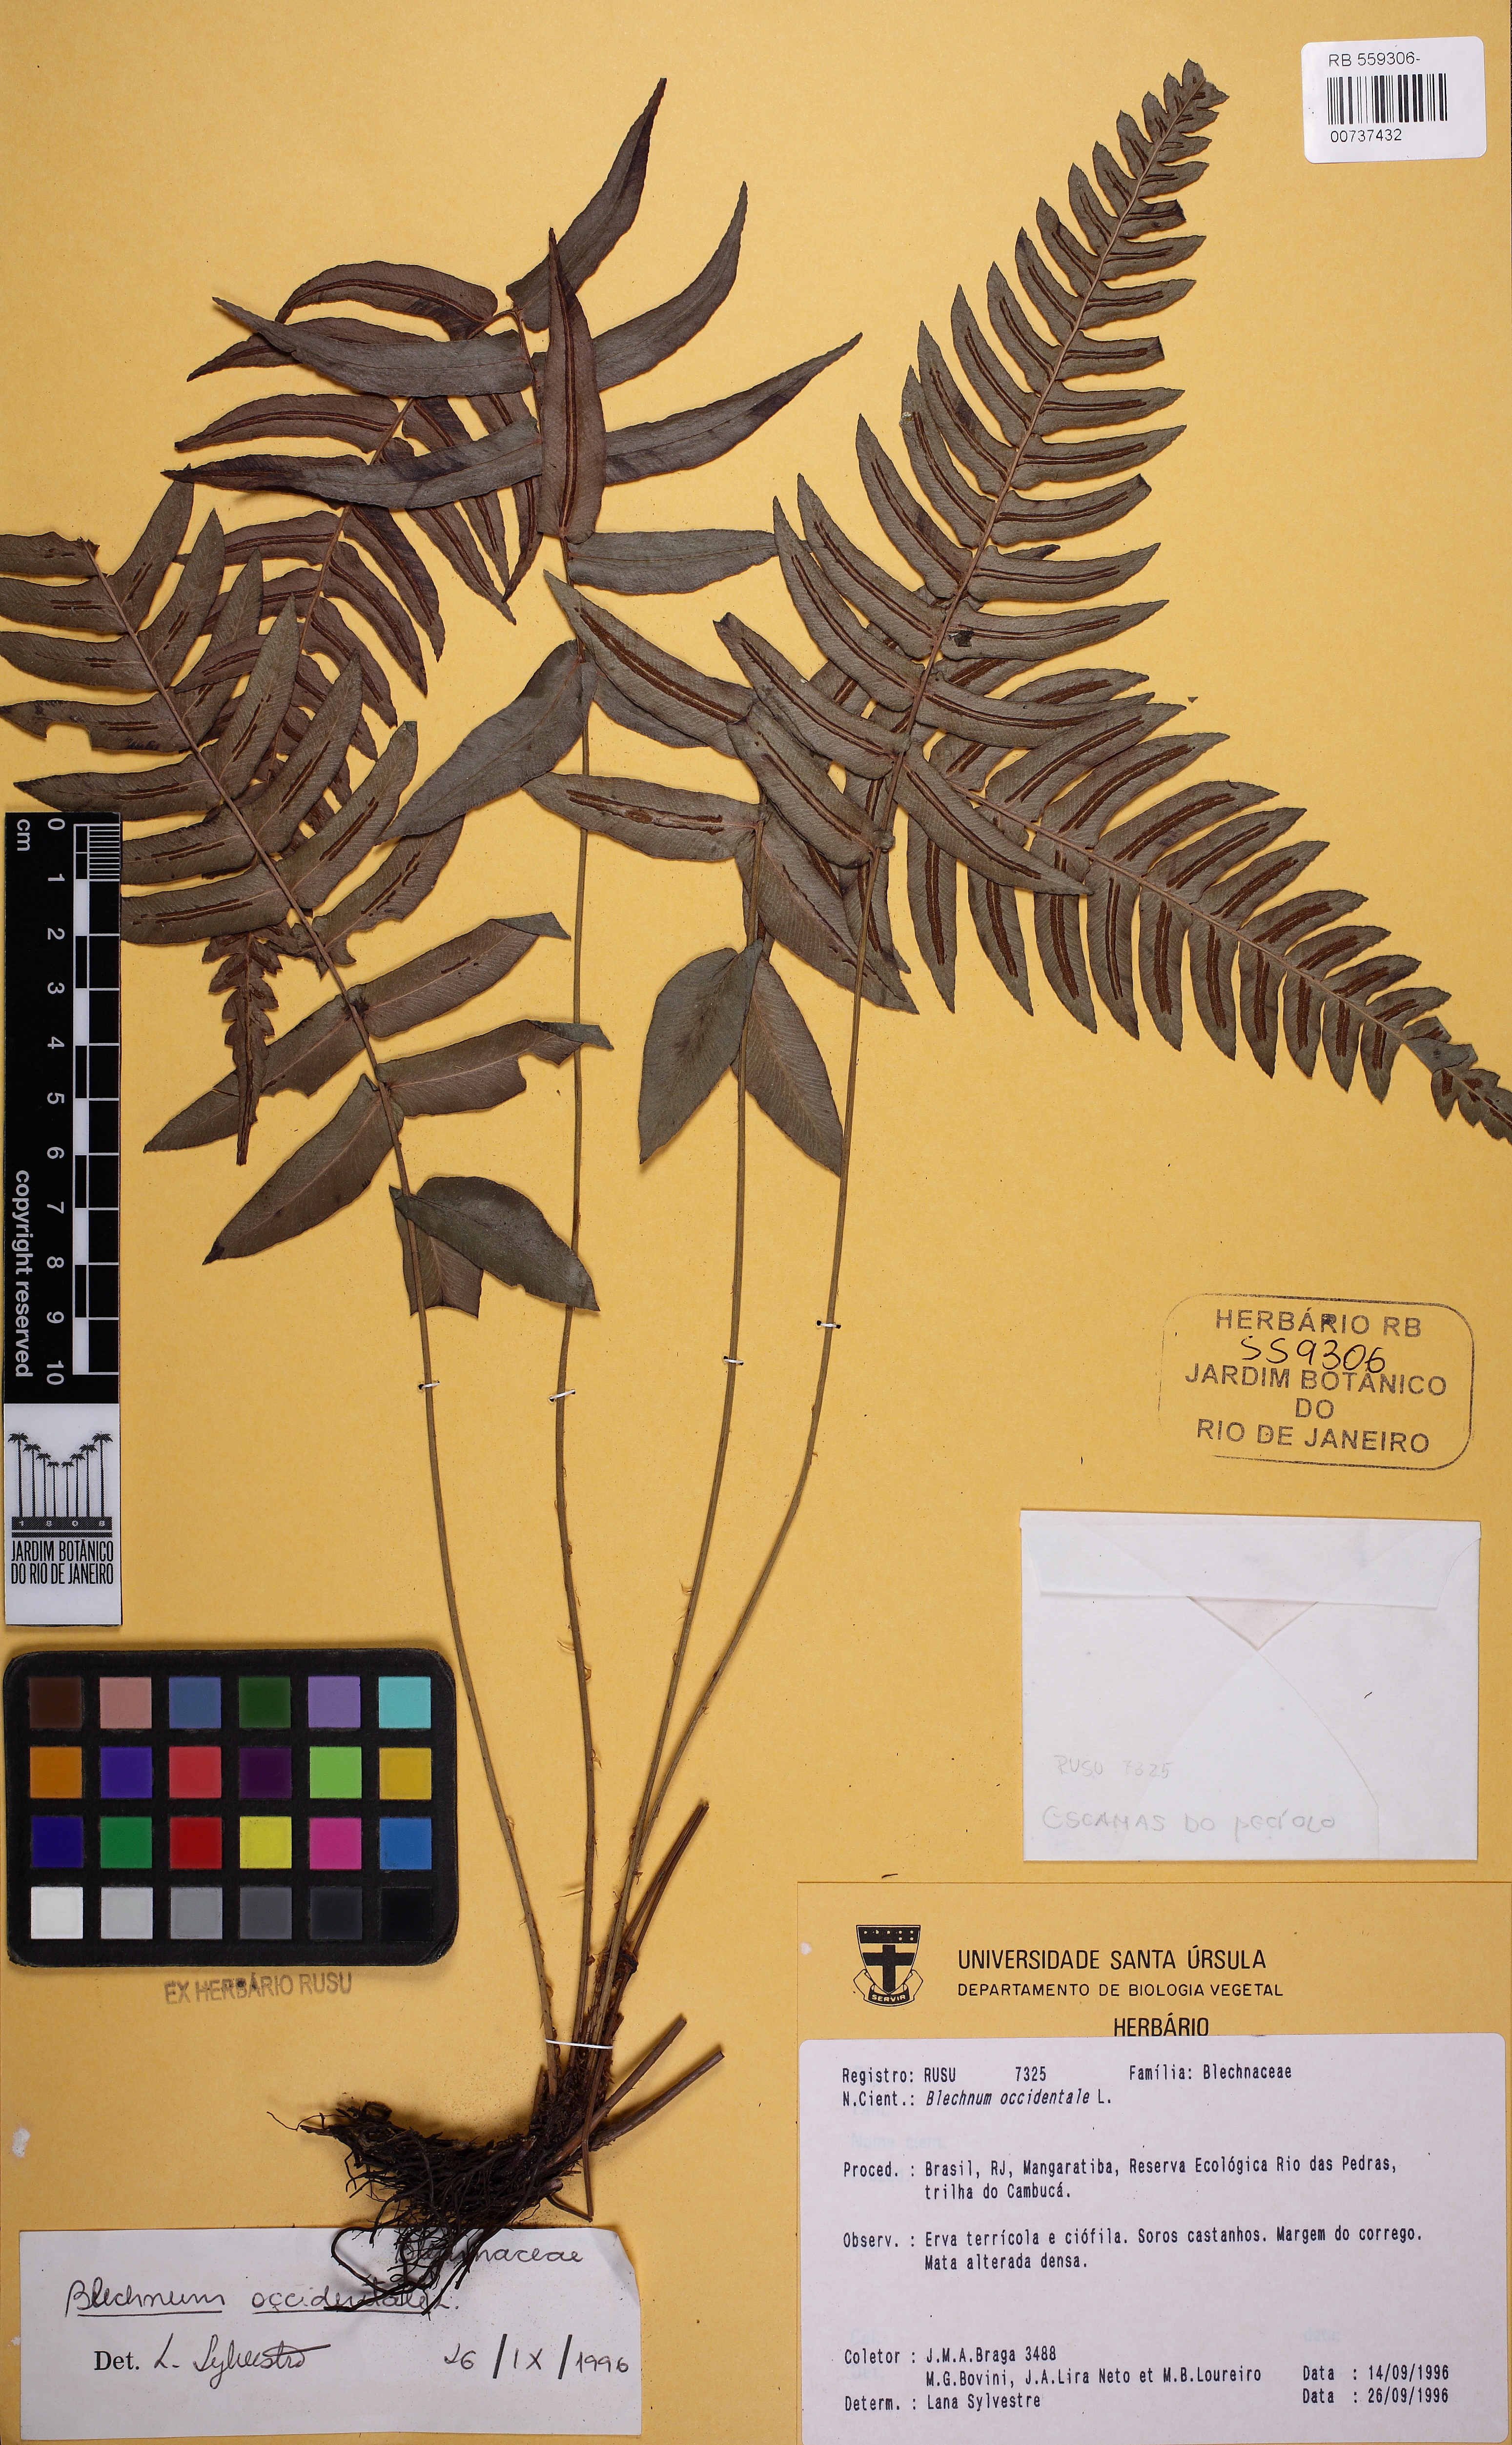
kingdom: Plantae
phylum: Tracheophyta
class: Polypodiopsida
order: Polypodiales
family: Blechnaceae
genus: Blechnum
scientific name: Blechnum occidentale
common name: Hammock fern
